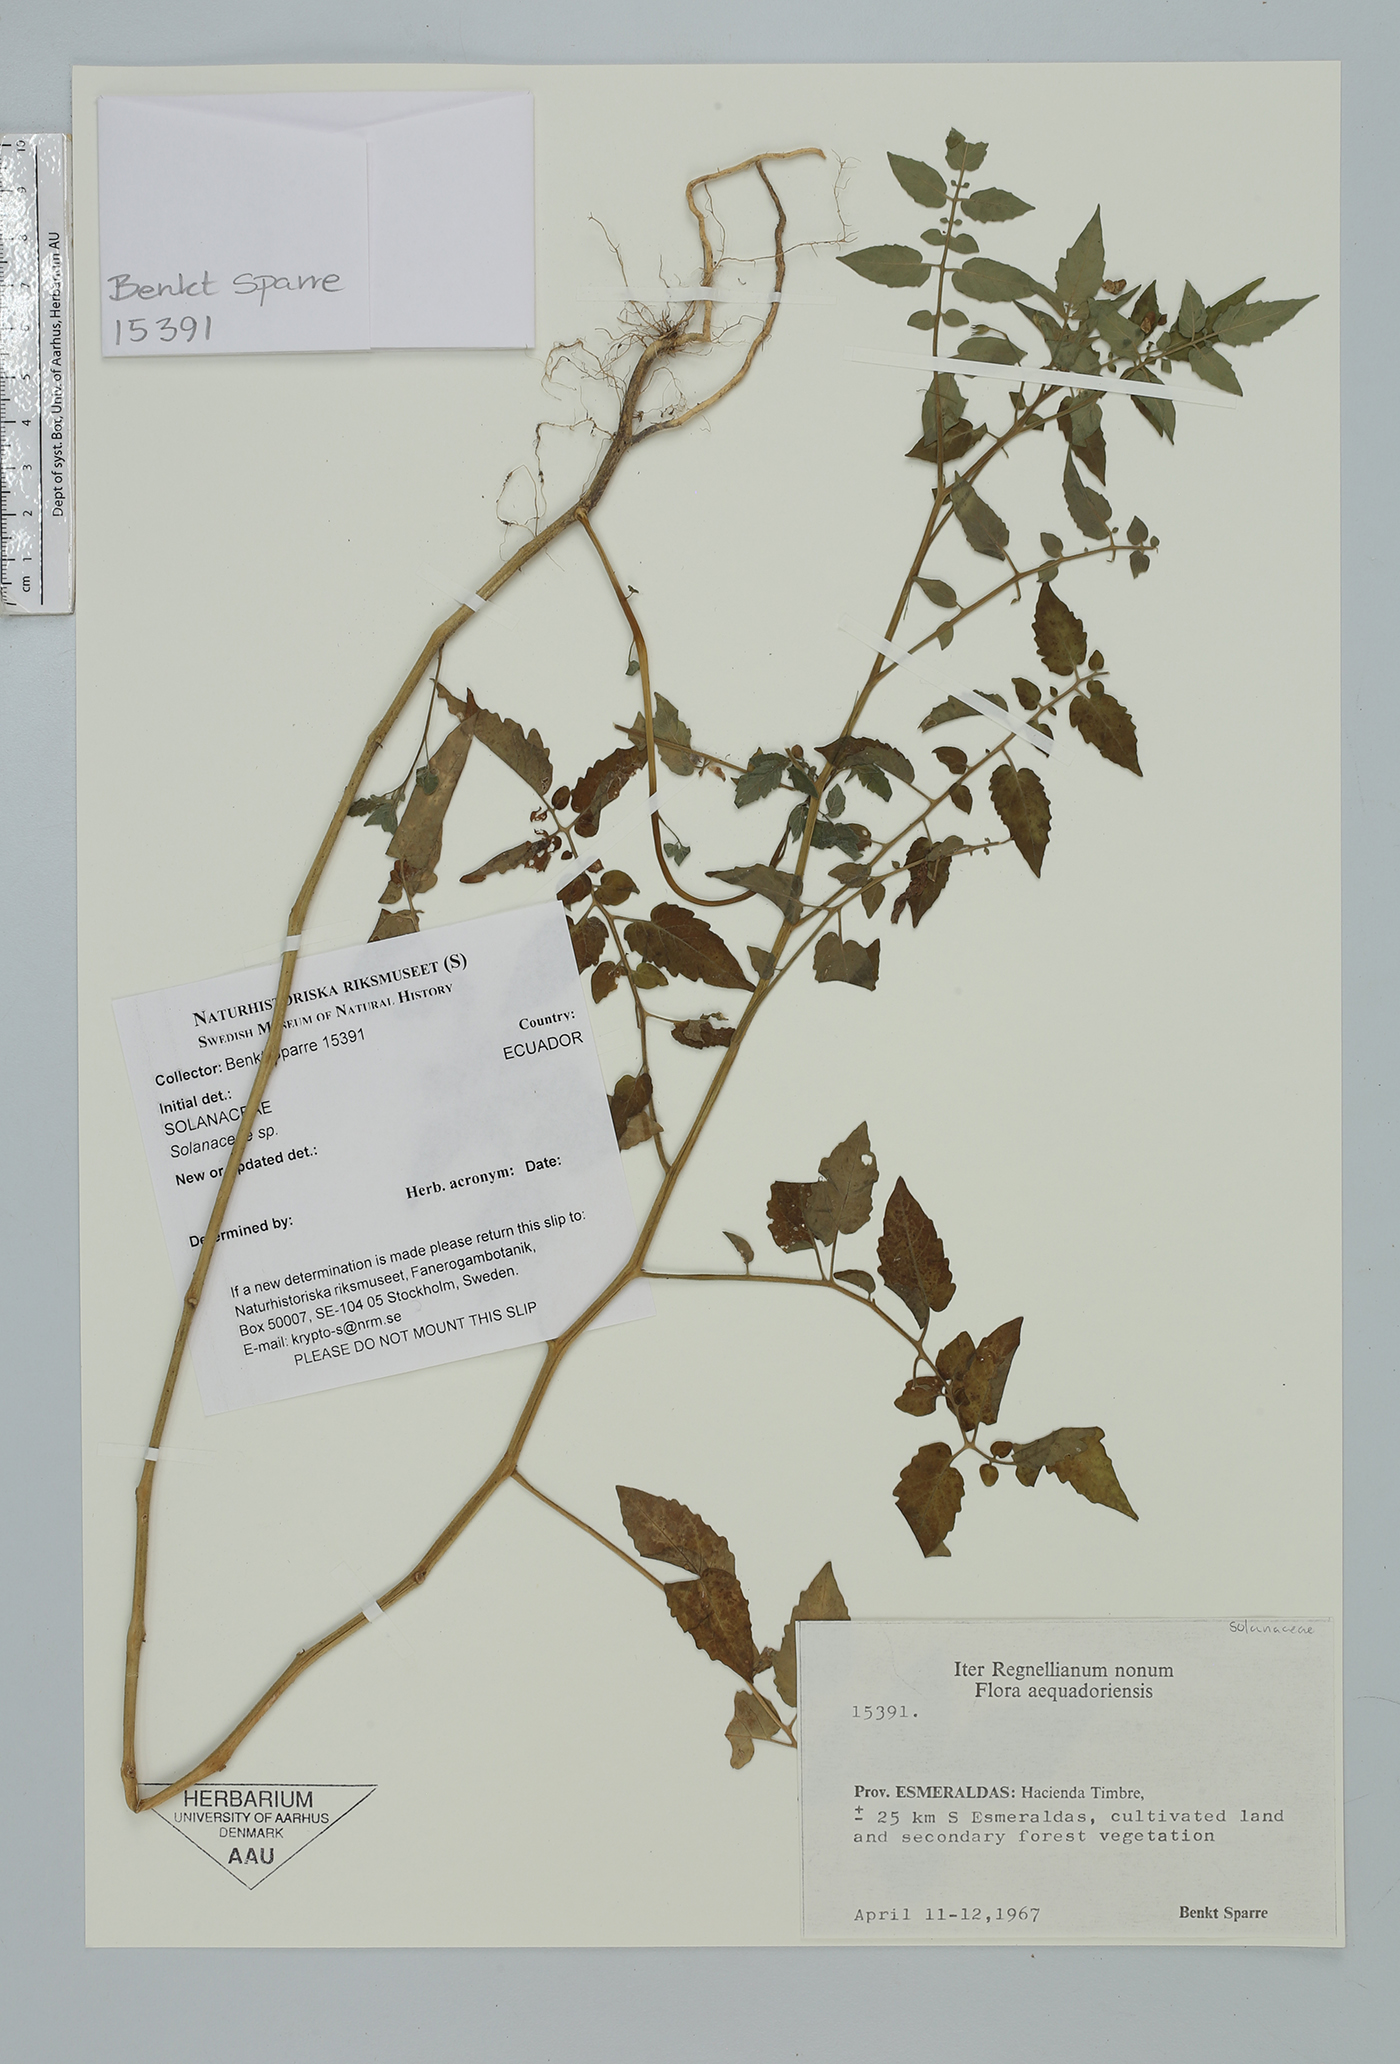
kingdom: Plantae
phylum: Tracheophyta
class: Magnoliopsida
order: Solanales
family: Solanaceae
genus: Solanum
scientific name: Solanum
